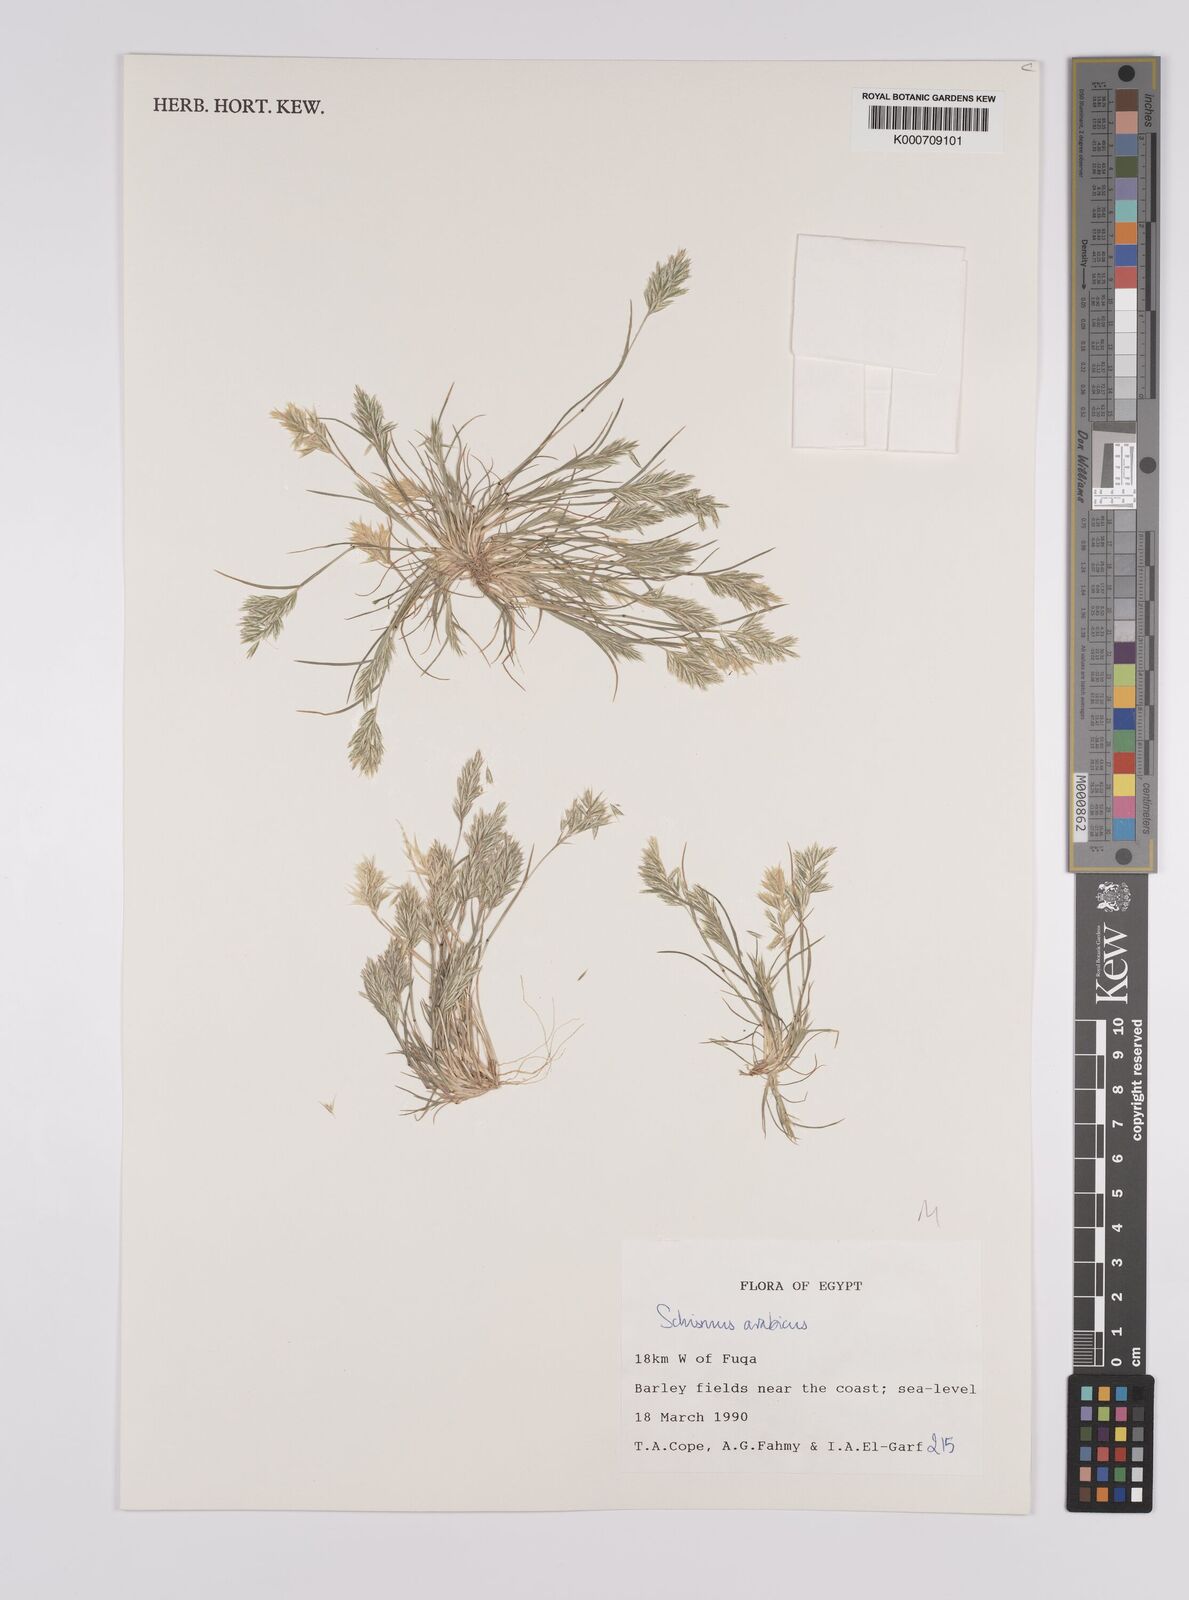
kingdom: Plantae
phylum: Tracheophyta
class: Liliopsida
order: Poales
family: Poaceae
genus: Schismus
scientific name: Schismus arabicus
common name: Arabian schismus
